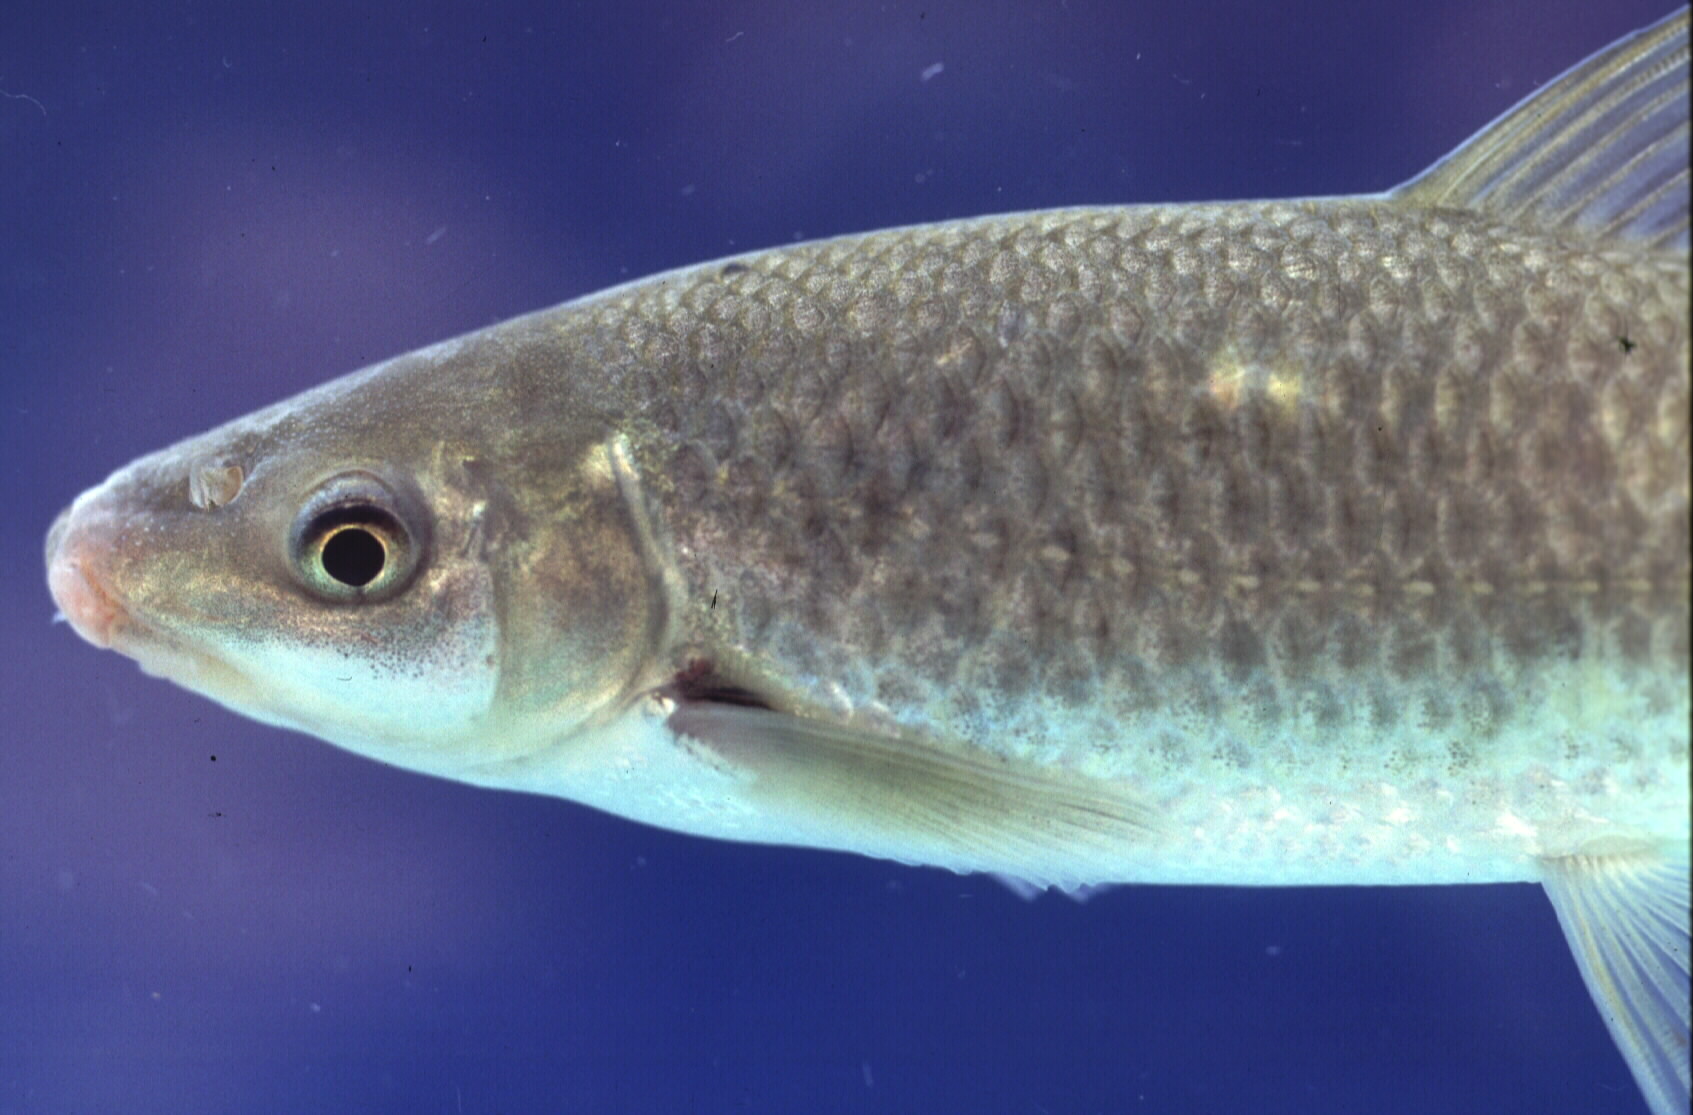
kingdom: Animalia
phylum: Chordata
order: Cypriniformes
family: Cyprinidae
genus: Labeo
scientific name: Labeo rubromaculatus
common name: Tugela labeo
